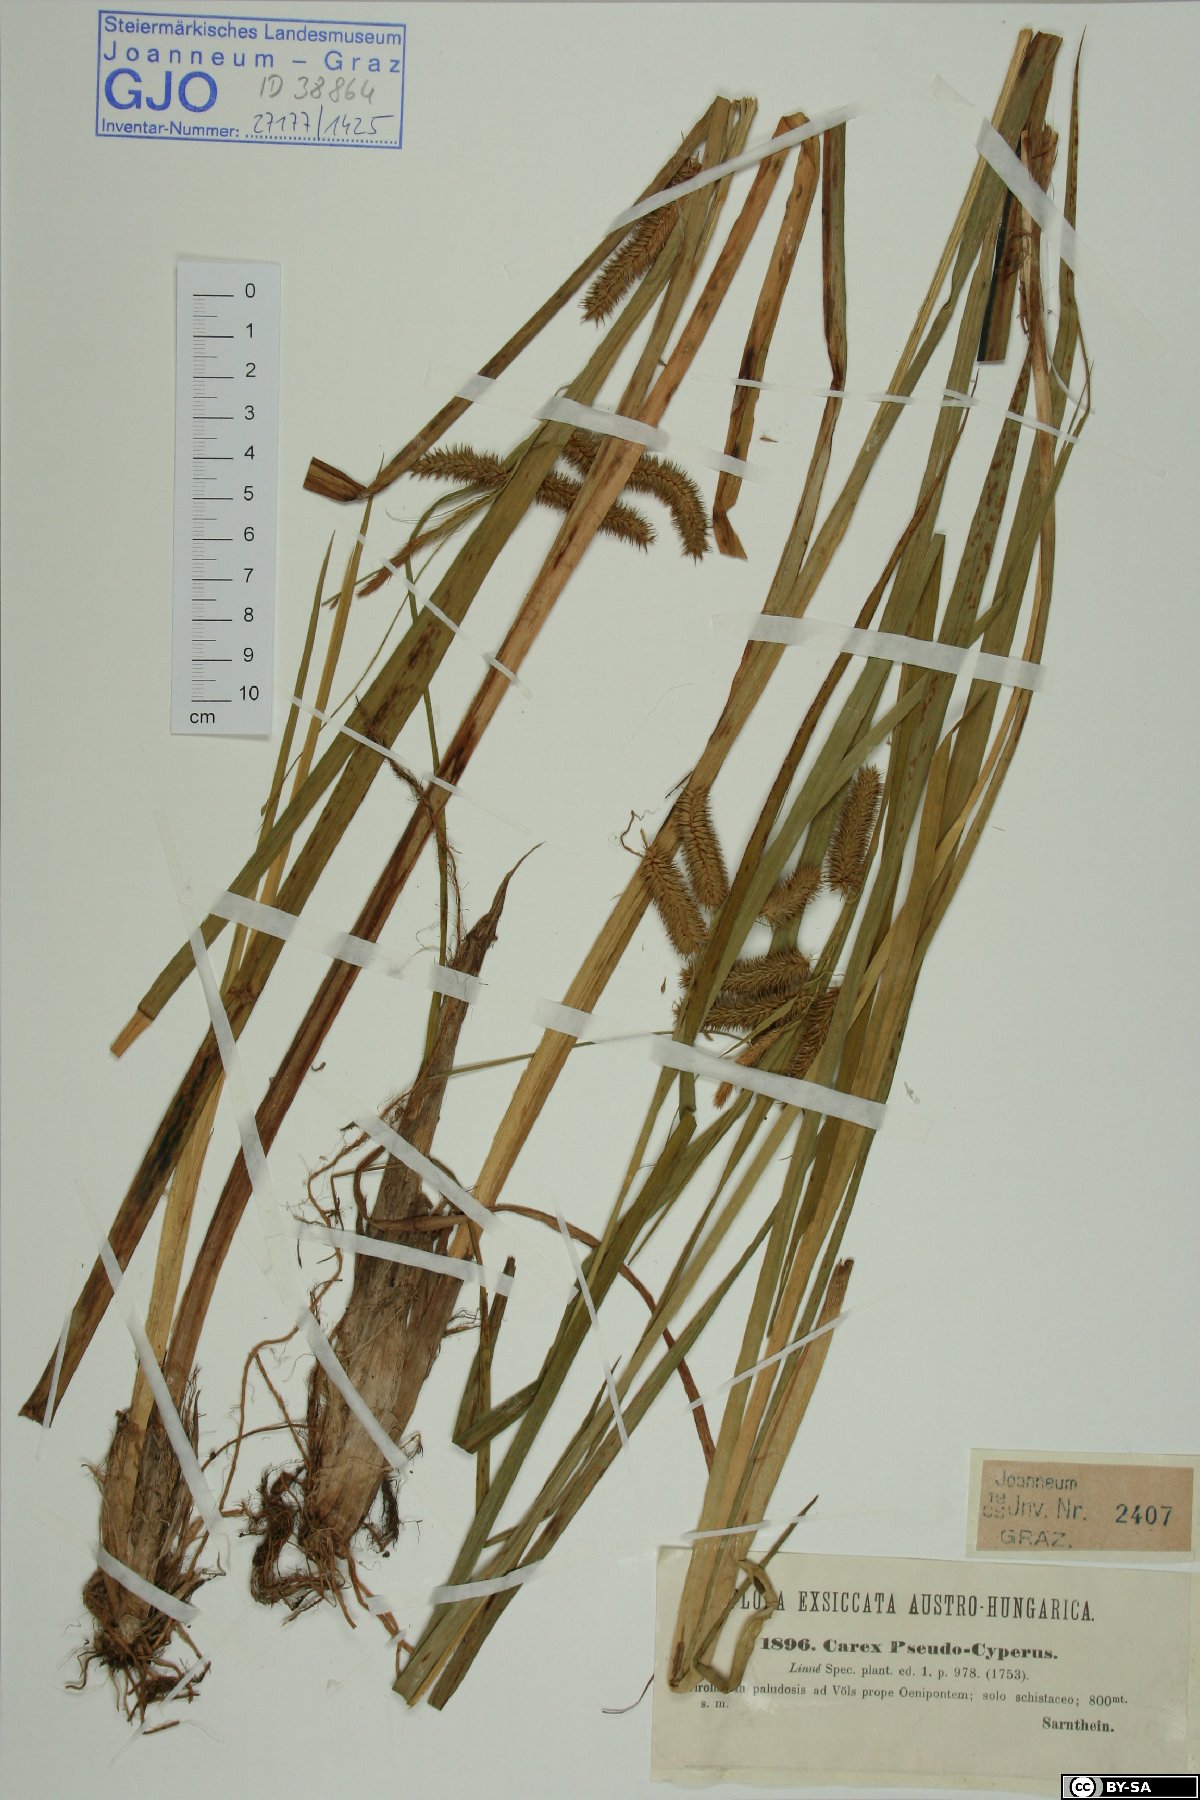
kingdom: Plantae
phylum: Tracheophyta
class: Liliopsida
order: Poales
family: Cyperaceae
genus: Carex
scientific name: Carex pseudocyperus
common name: Cyperus sedge
